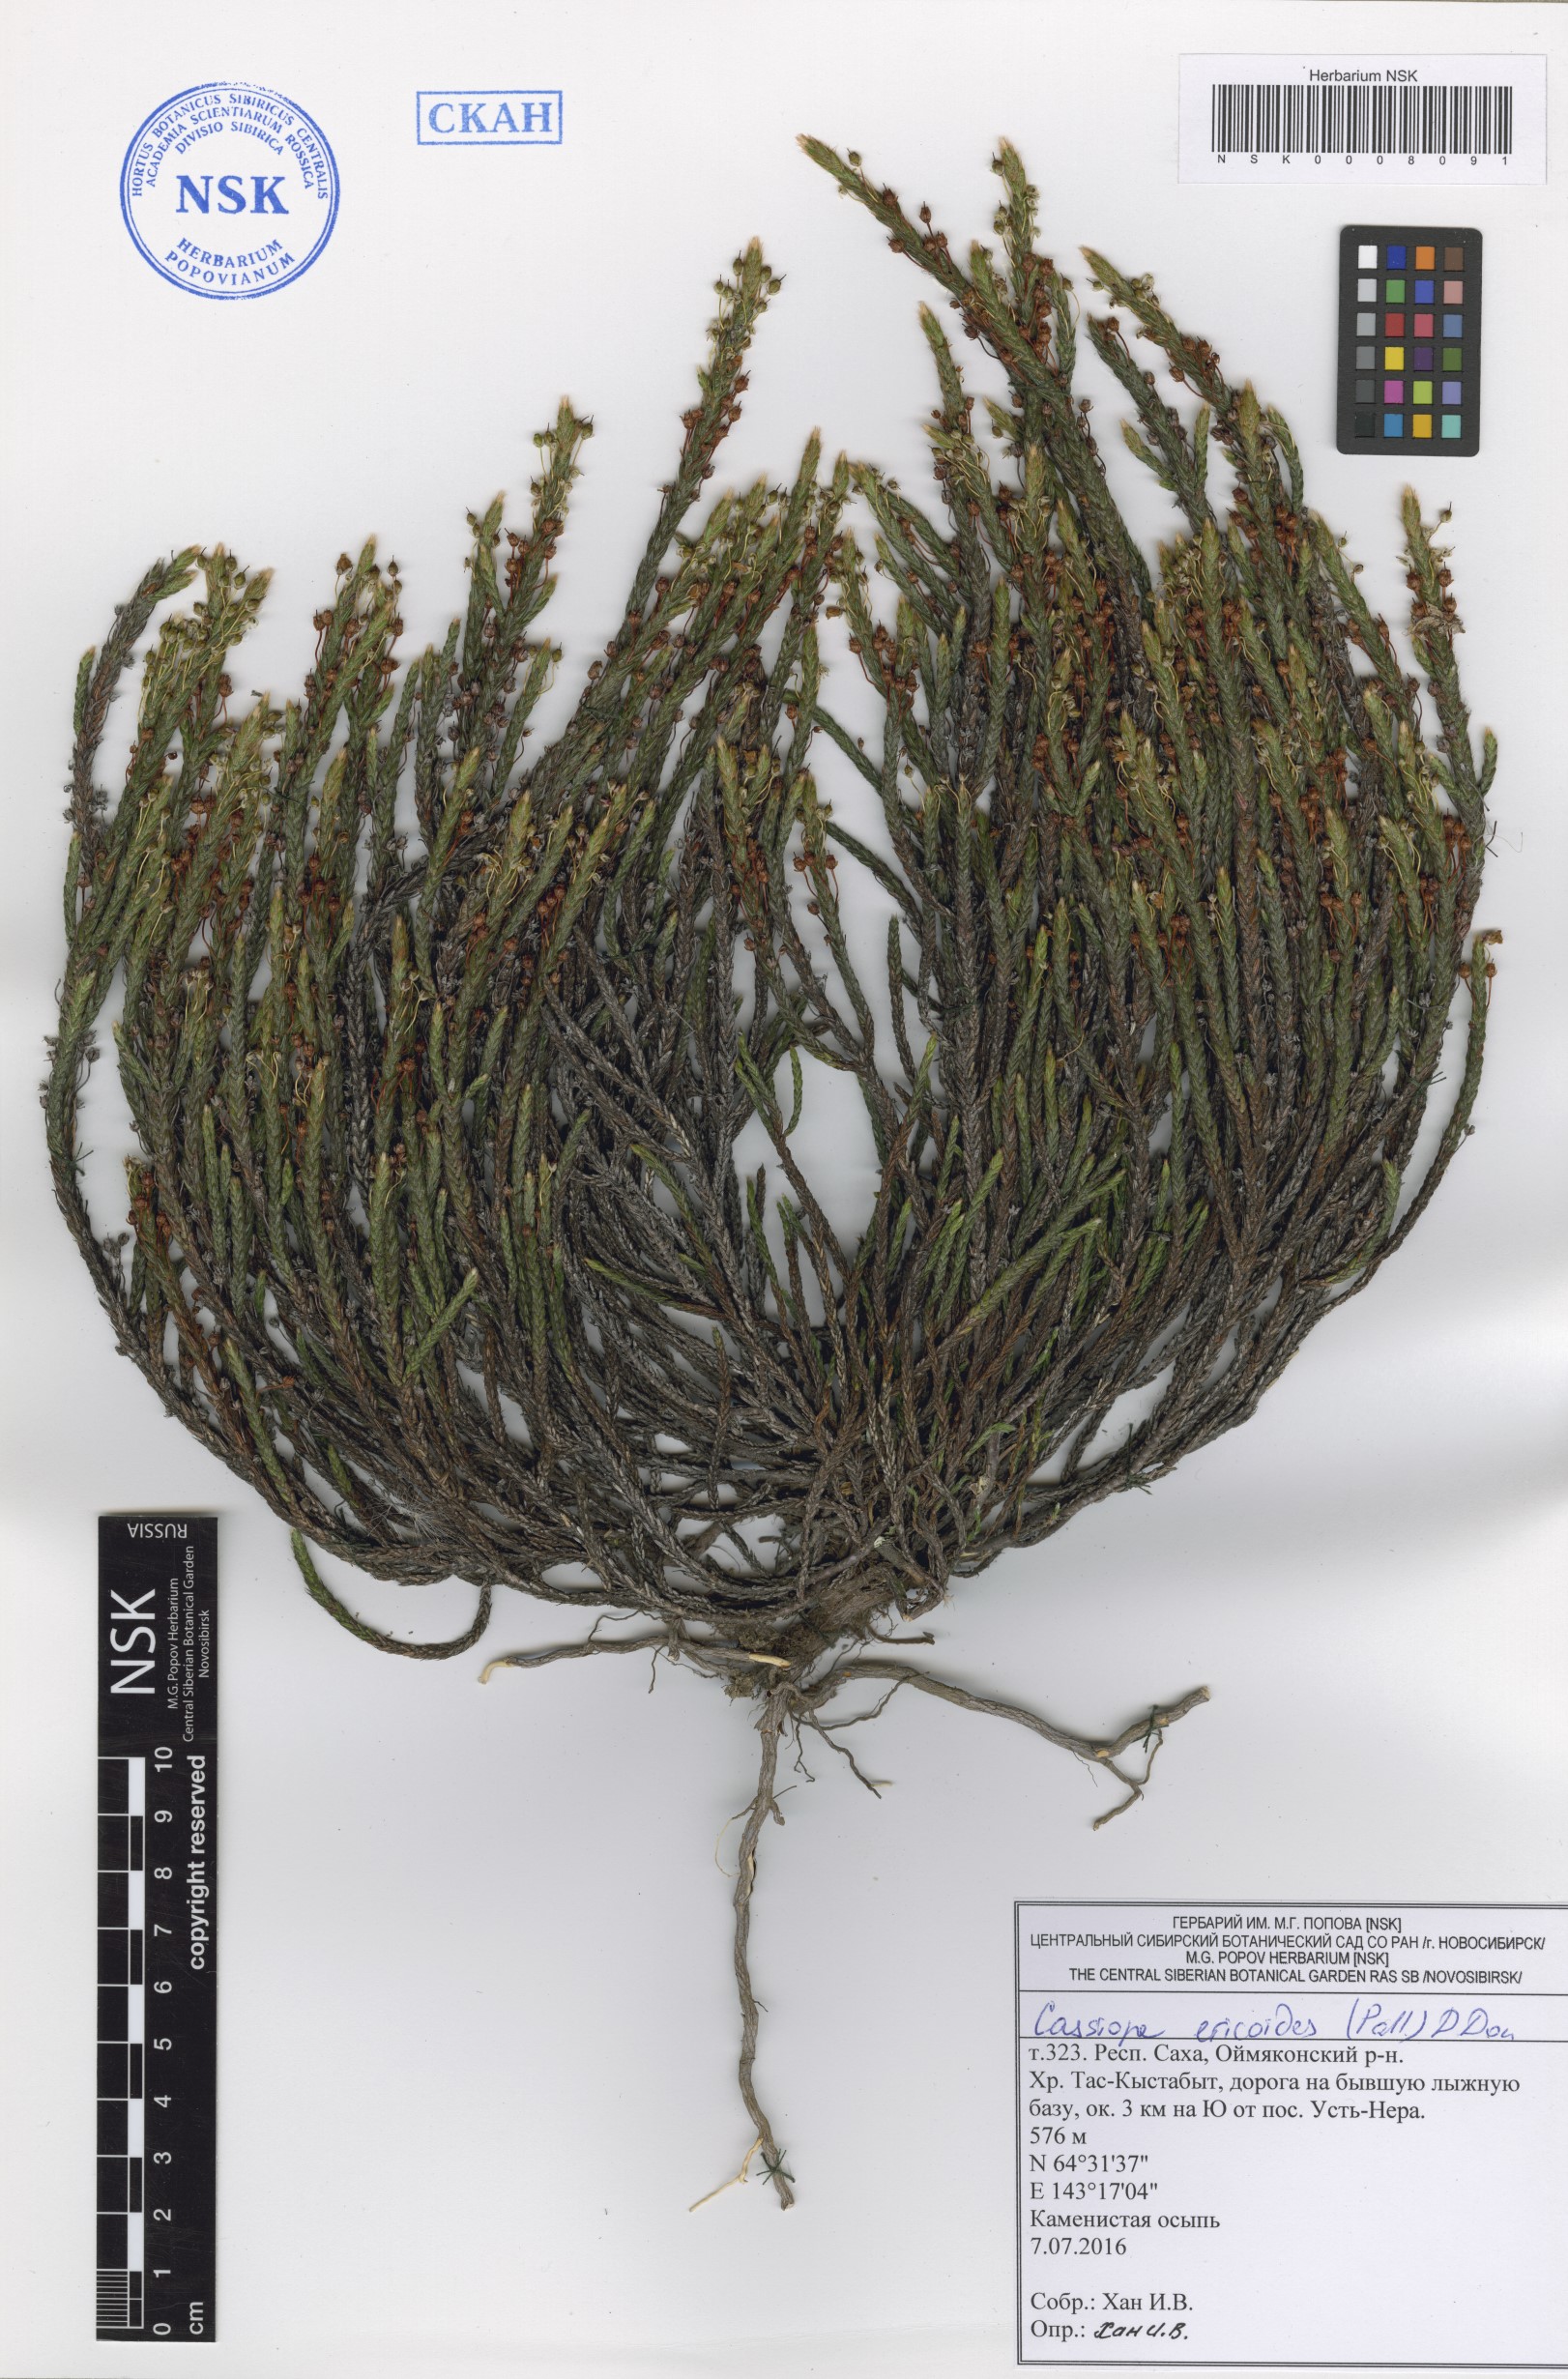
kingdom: Plantae
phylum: Tracheophyta
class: Magnoliopsida
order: Ericales
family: Ericaceae
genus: Cassiope
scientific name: Cassiope ericoides
